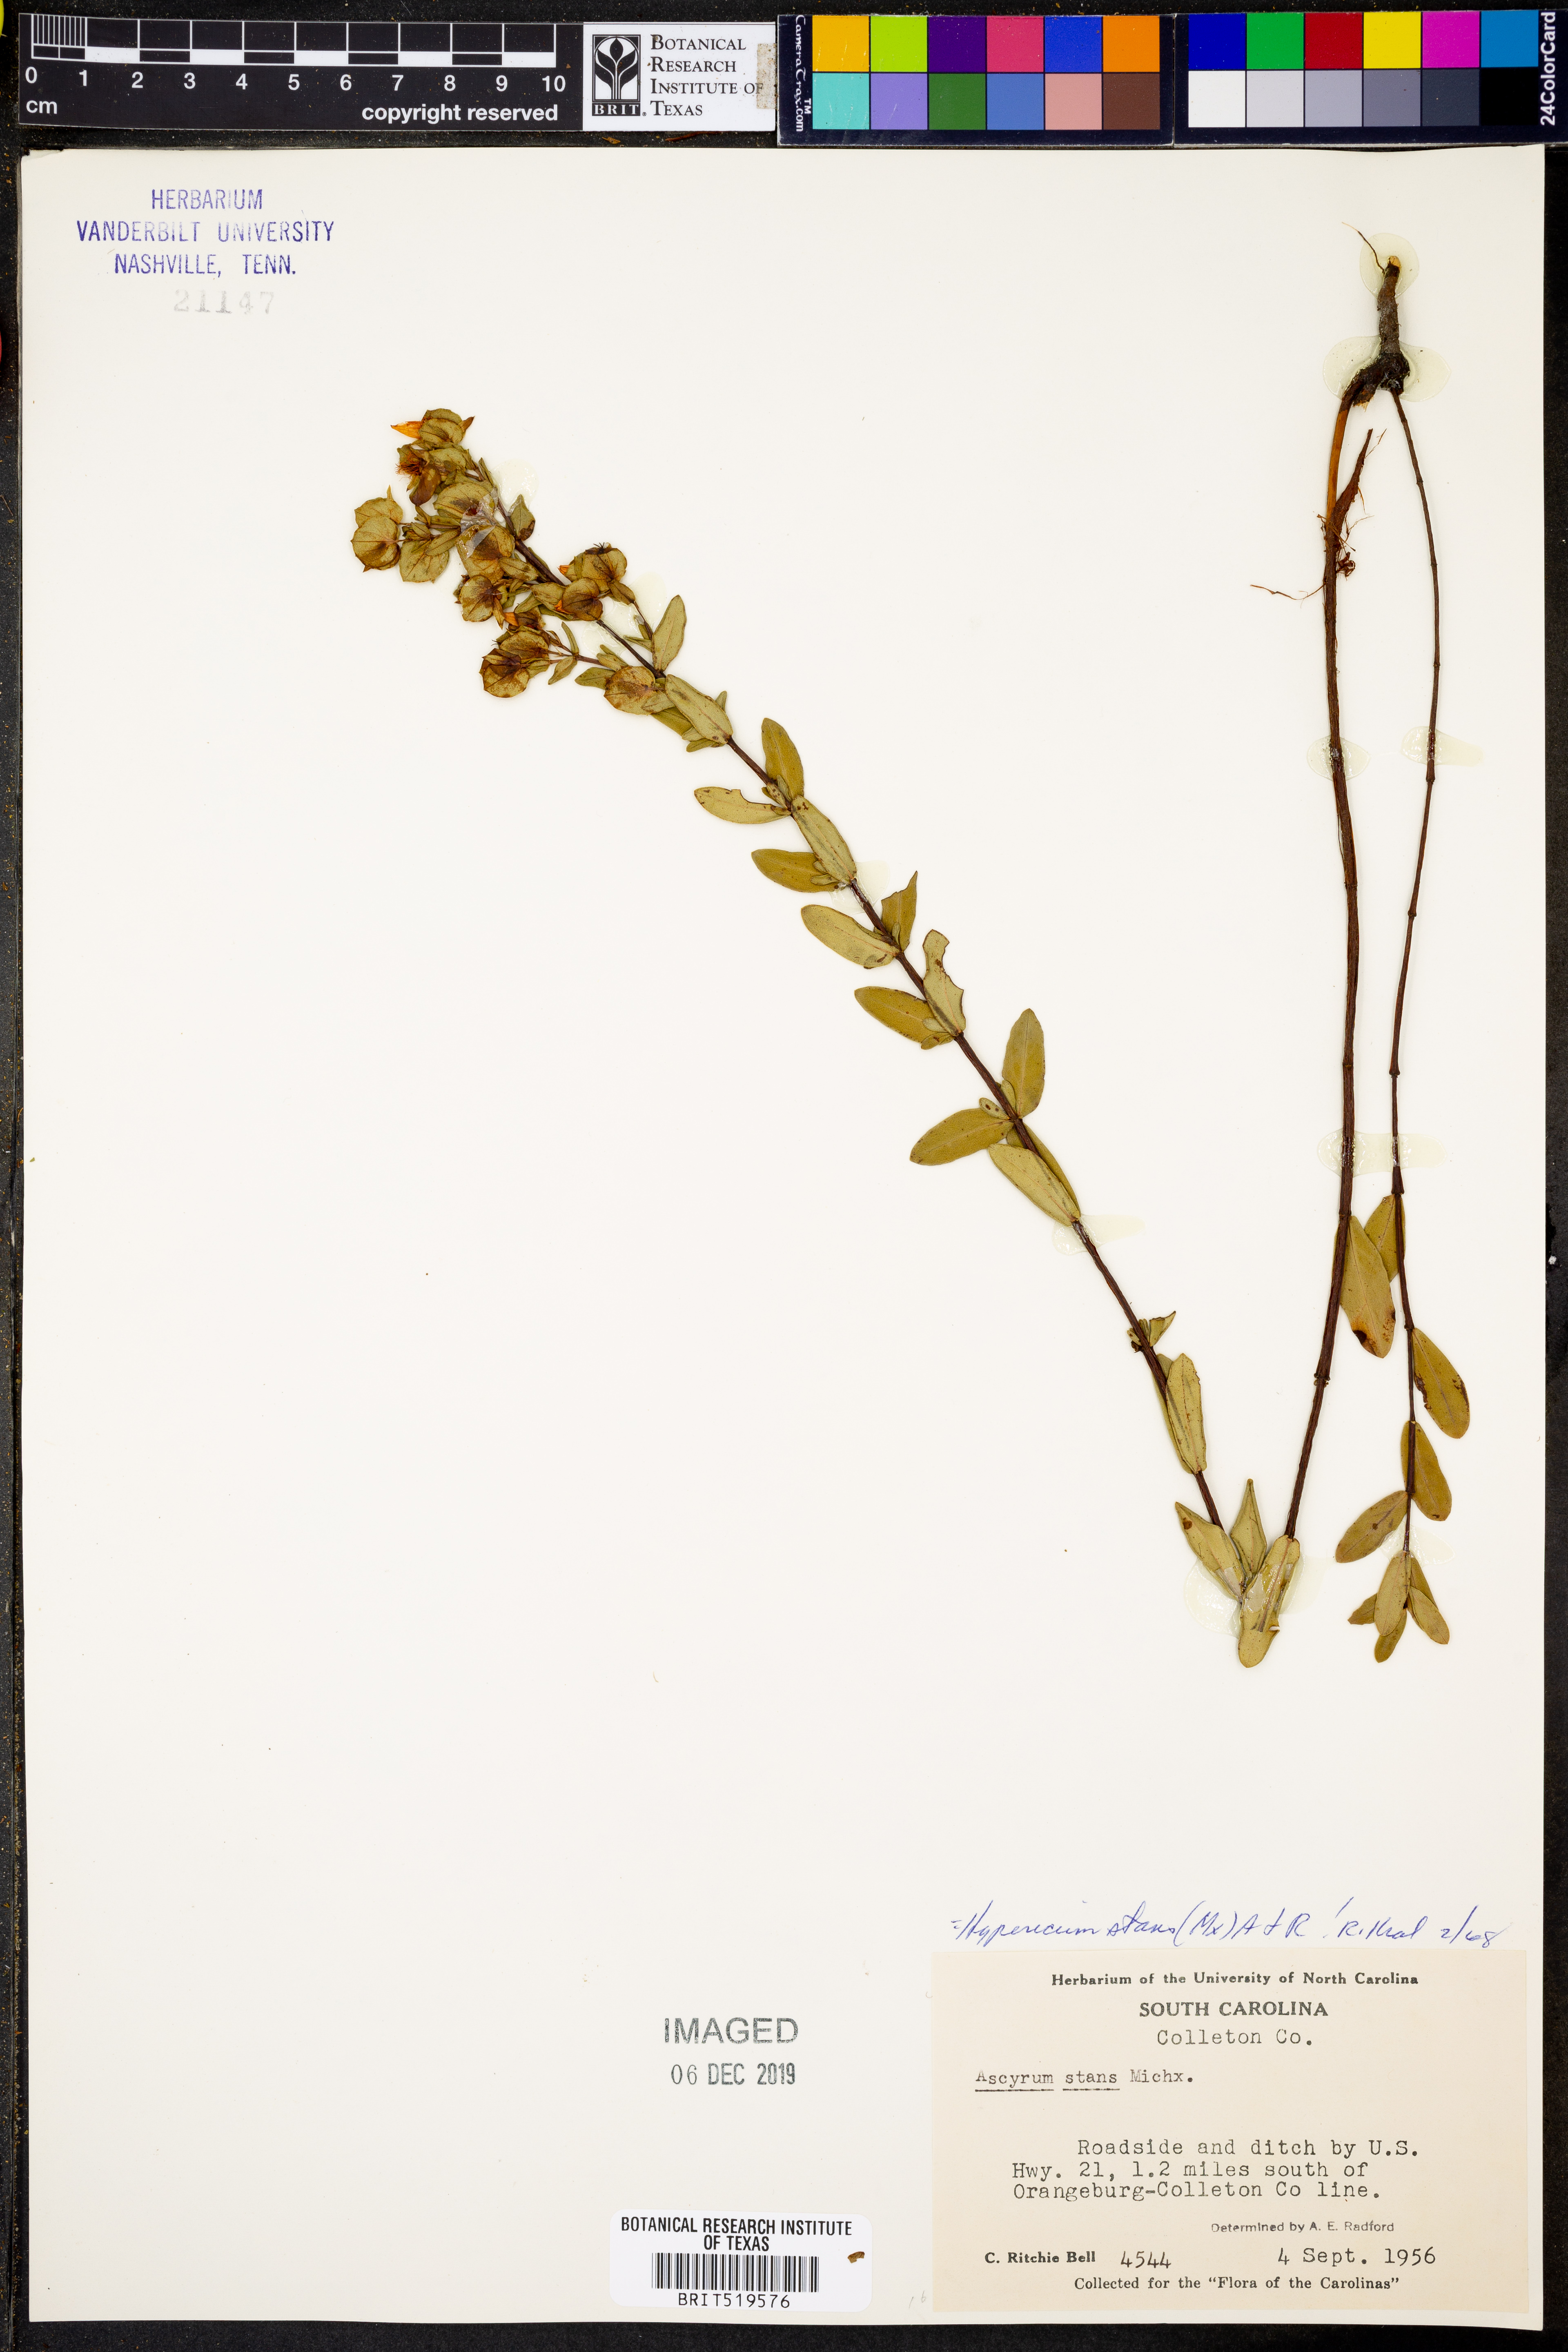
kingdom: Plantae
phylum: Tracheophyta
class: Magnoliopsida
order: Malpighiales
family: Hypericaceae
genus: Hypericum
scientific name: Hypericum crux-andreae
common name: St.-peter's-wort
